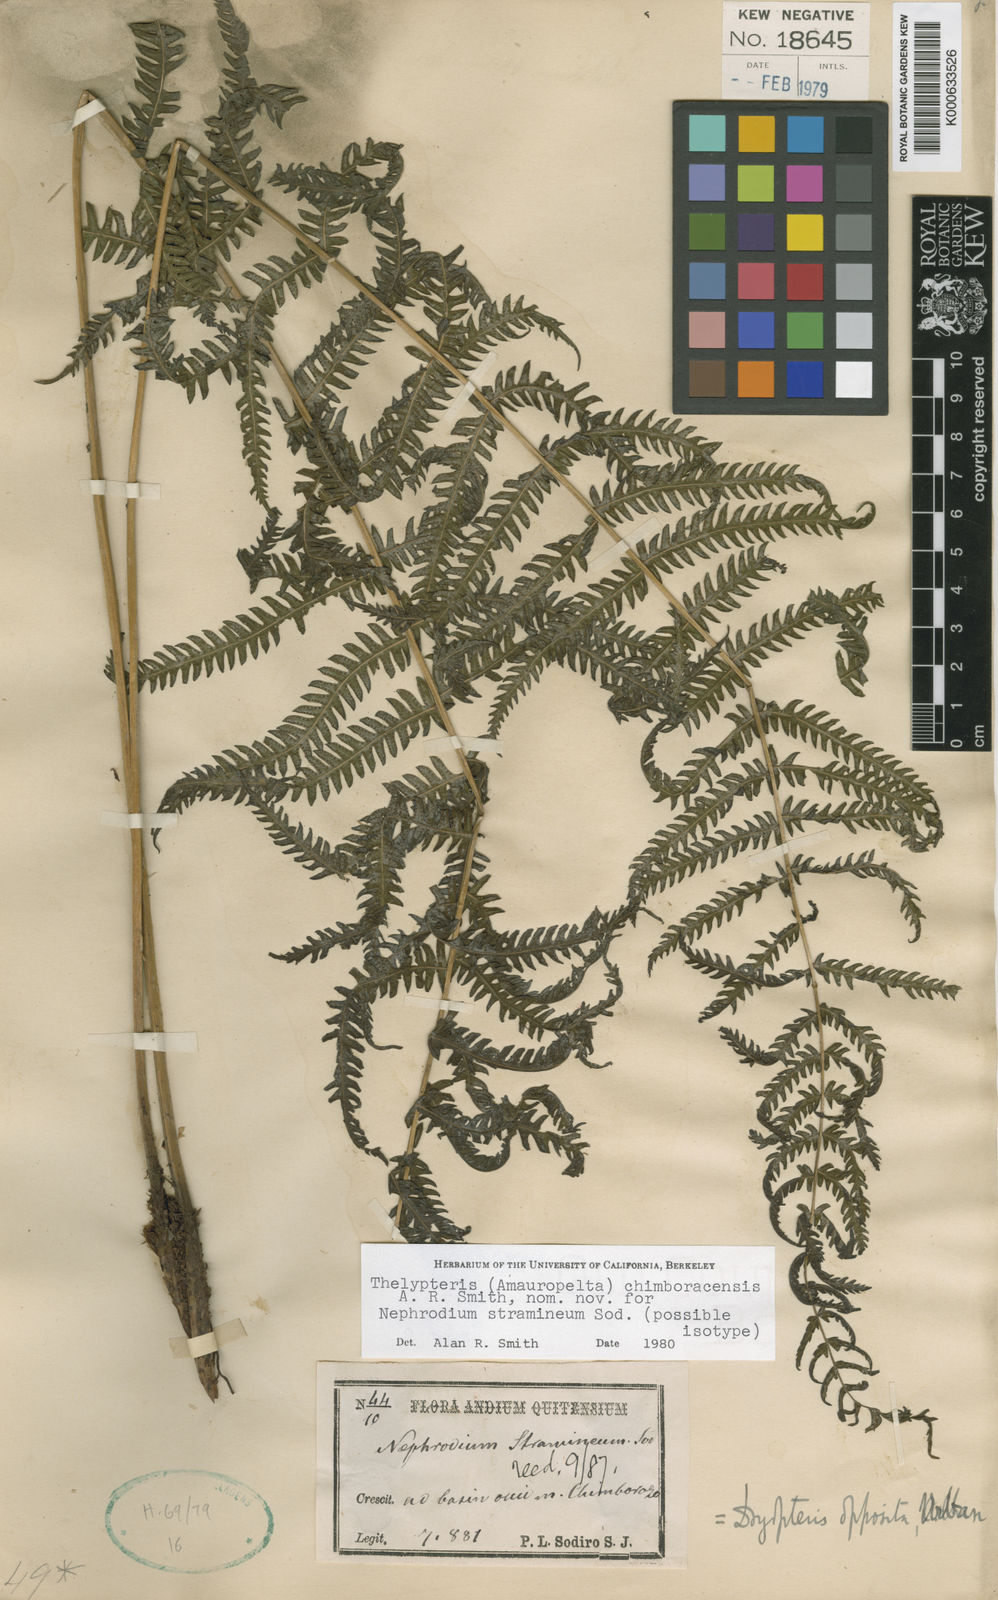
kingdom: Plantae
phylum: Tracheophyta
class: Polypodiopsida
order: Polypodiales
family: Thelypteridaceae
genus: Amauropelta
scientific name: Amauropelta
